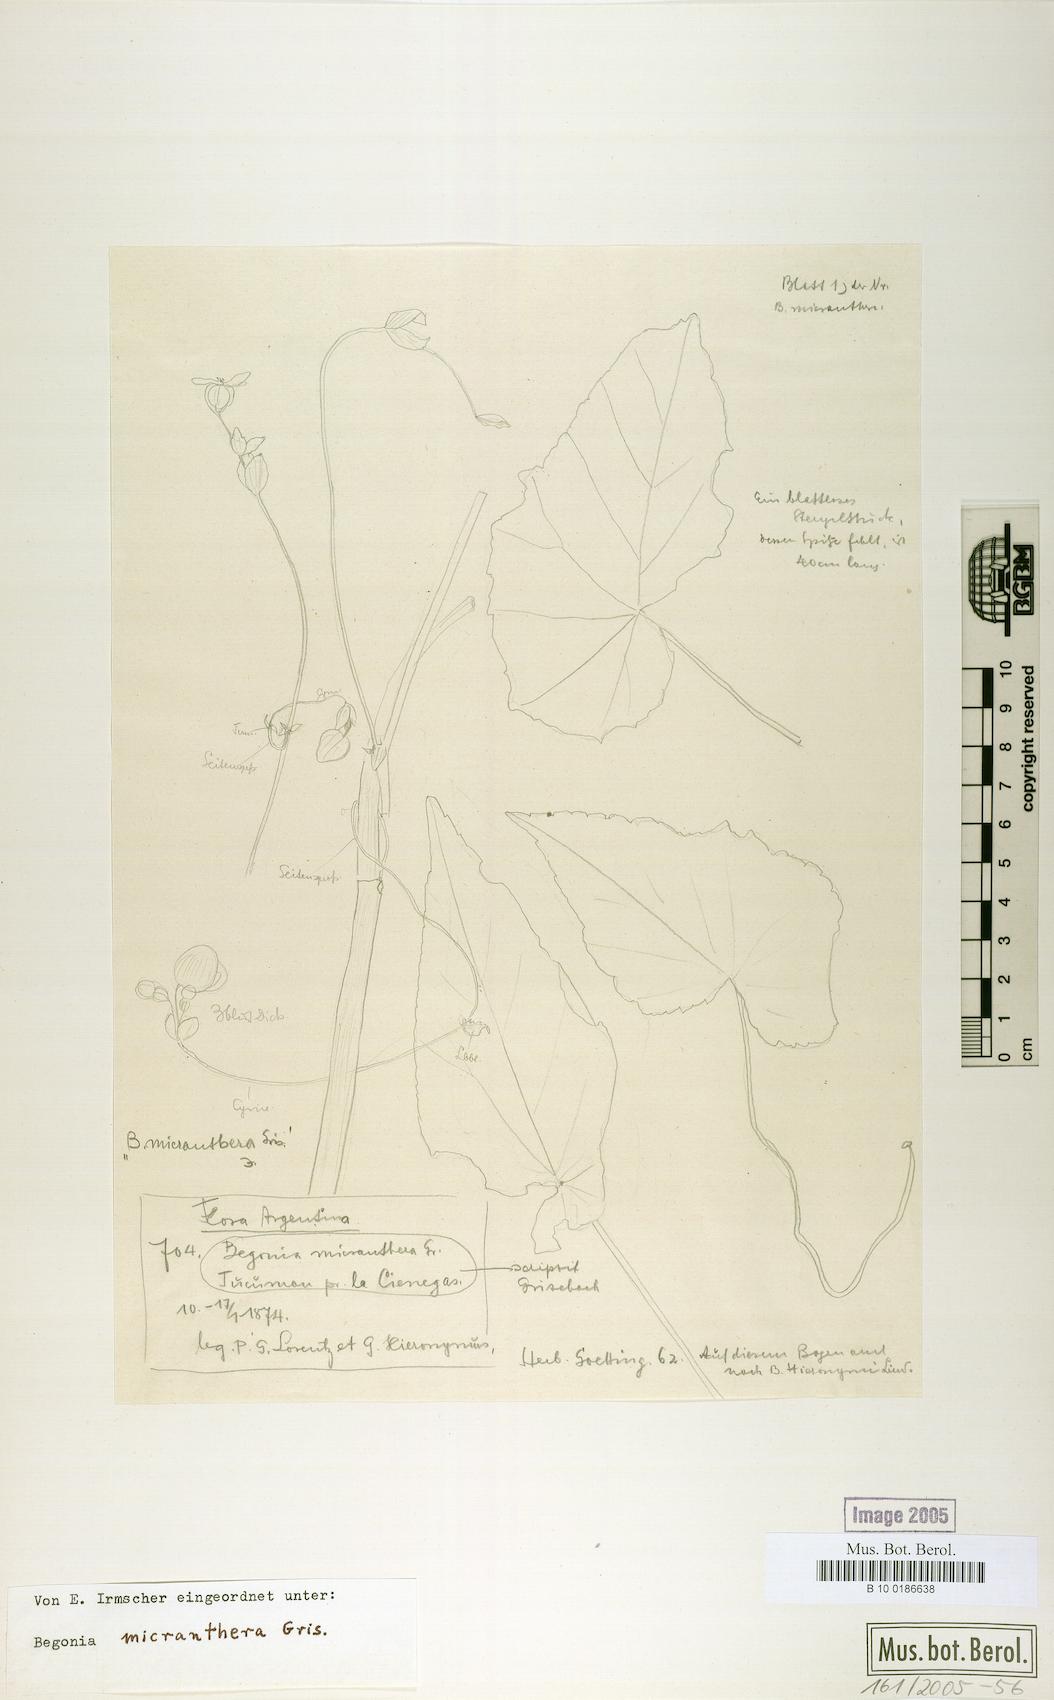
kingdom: Plantae
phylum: Tracheophyta
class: Magnoliopsida
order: Cucurbitales
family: Begoniaceae
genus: Begonia
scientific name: Begonia micranthera
